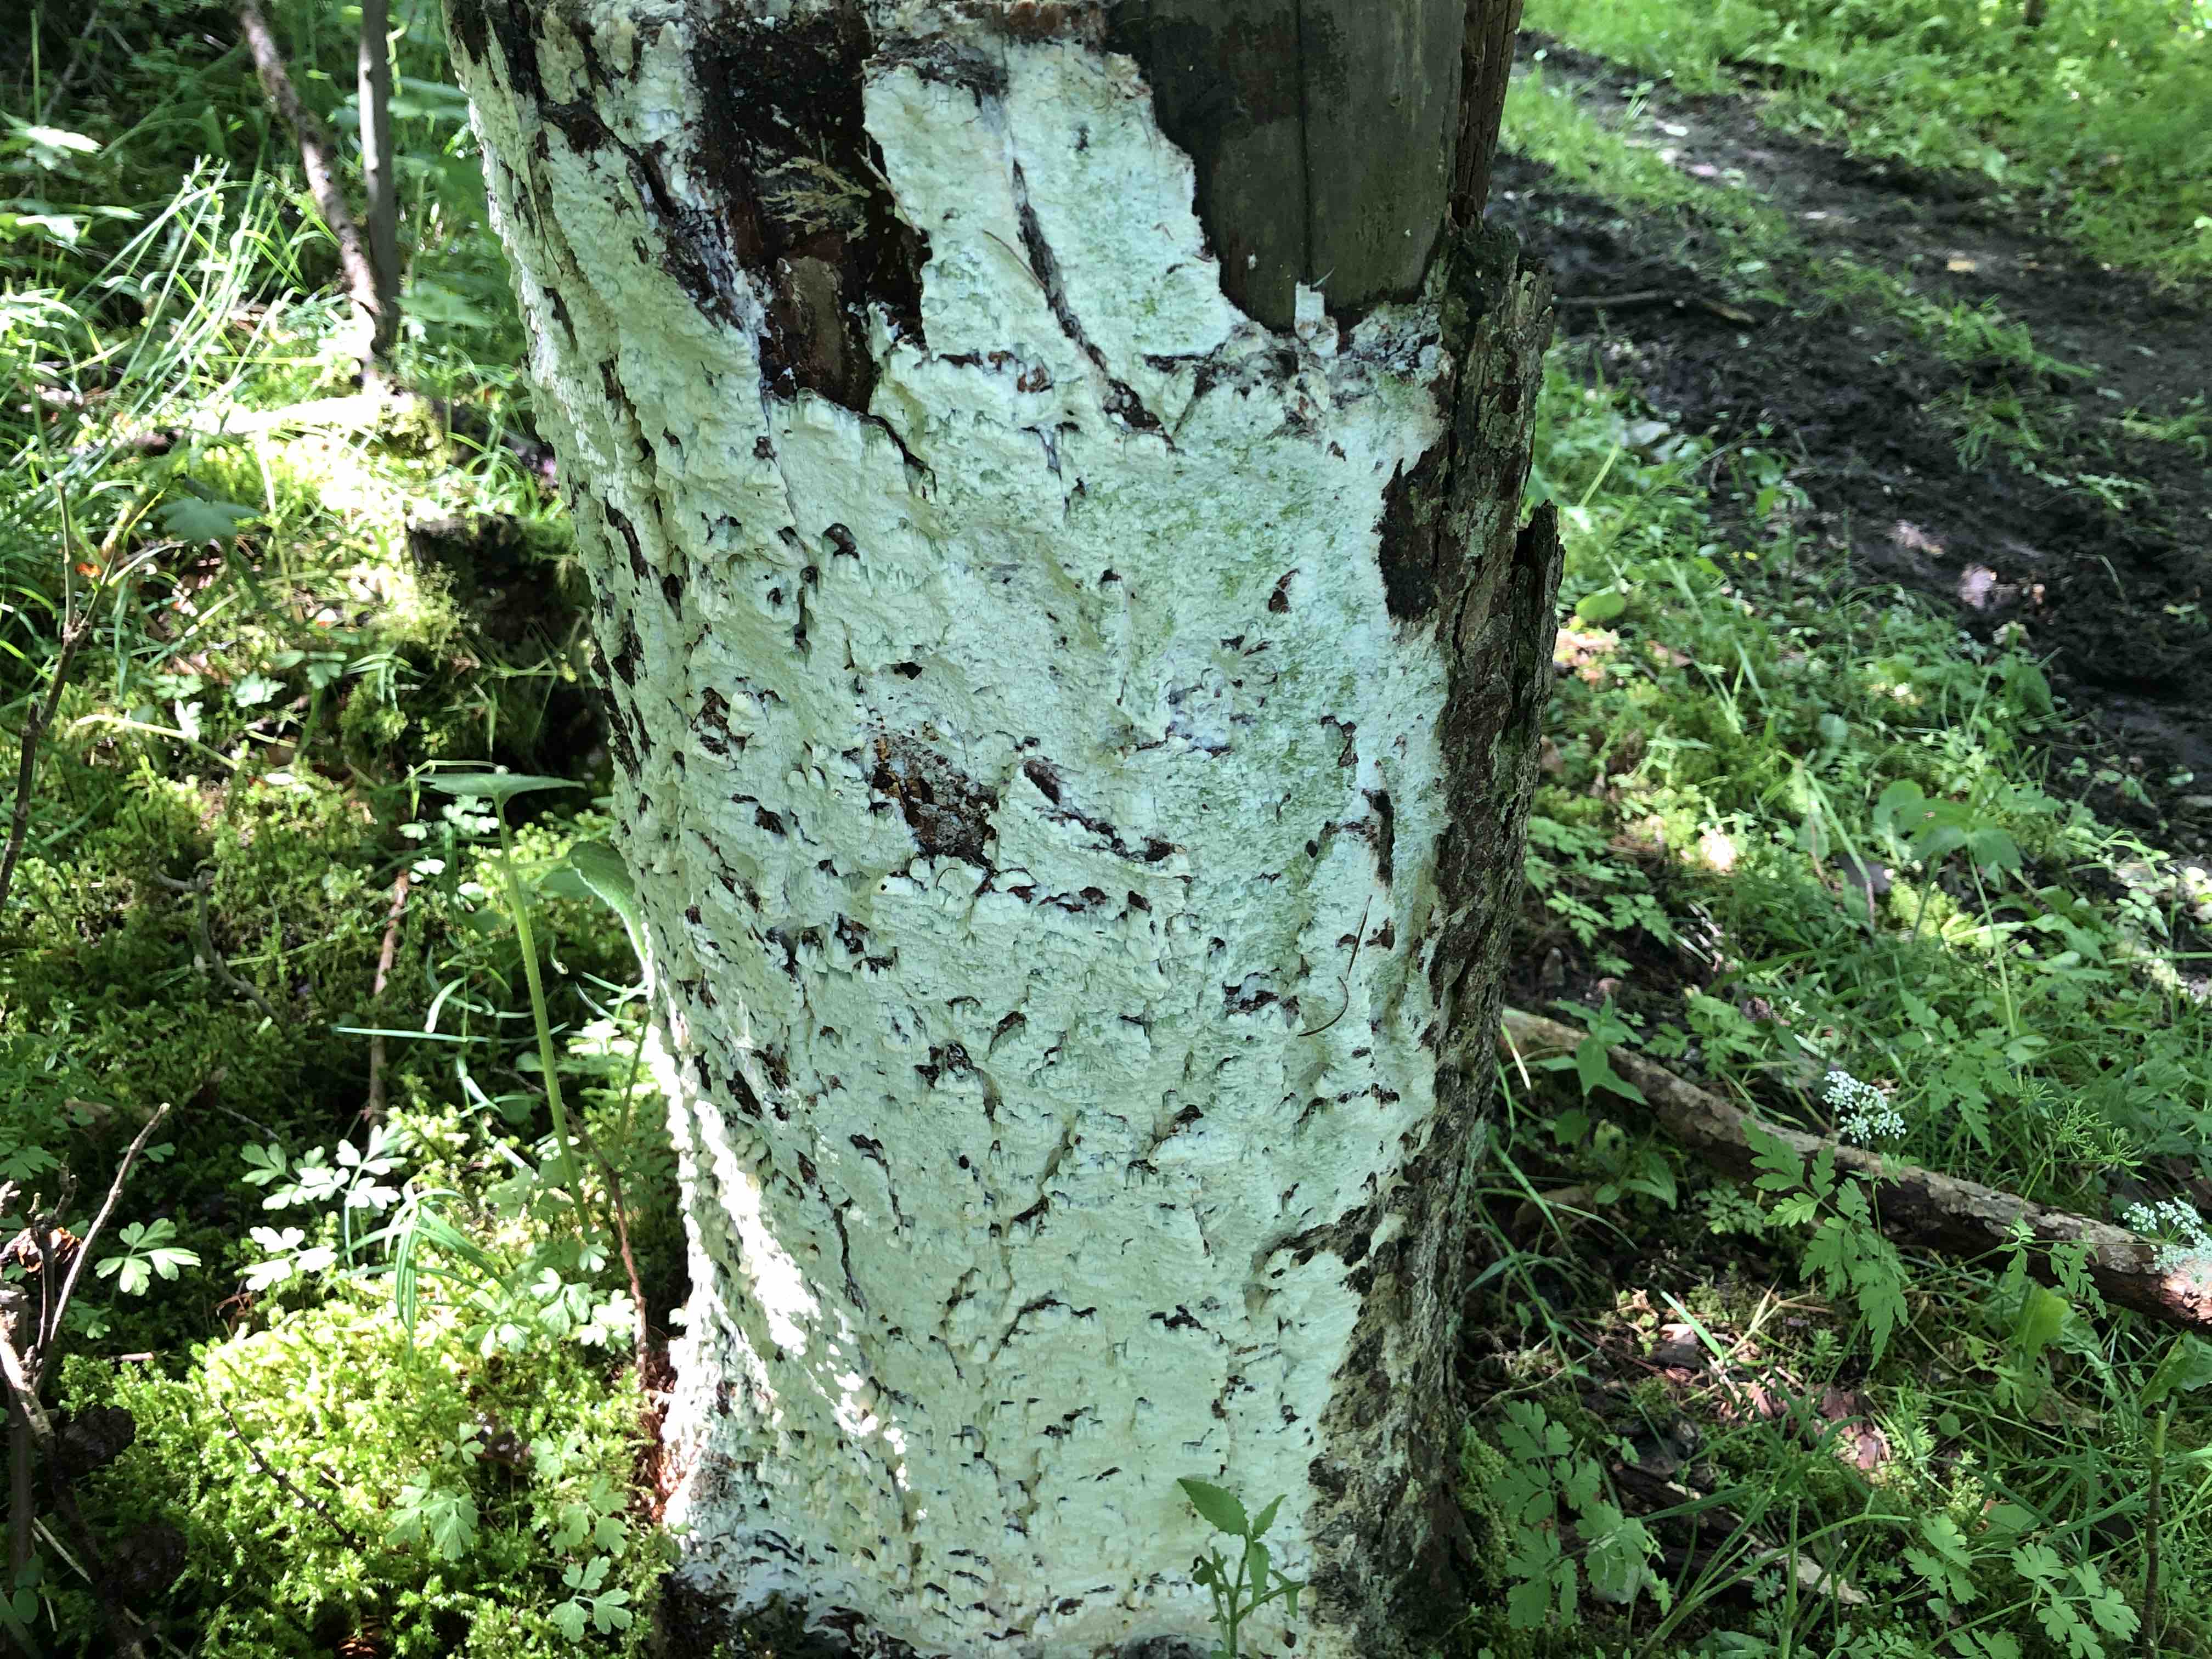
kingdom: Fungi
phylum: Basidiomycota
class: Agaricomycetes
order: Corticiales
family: Corticiaceae
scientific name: Corticiaceae
